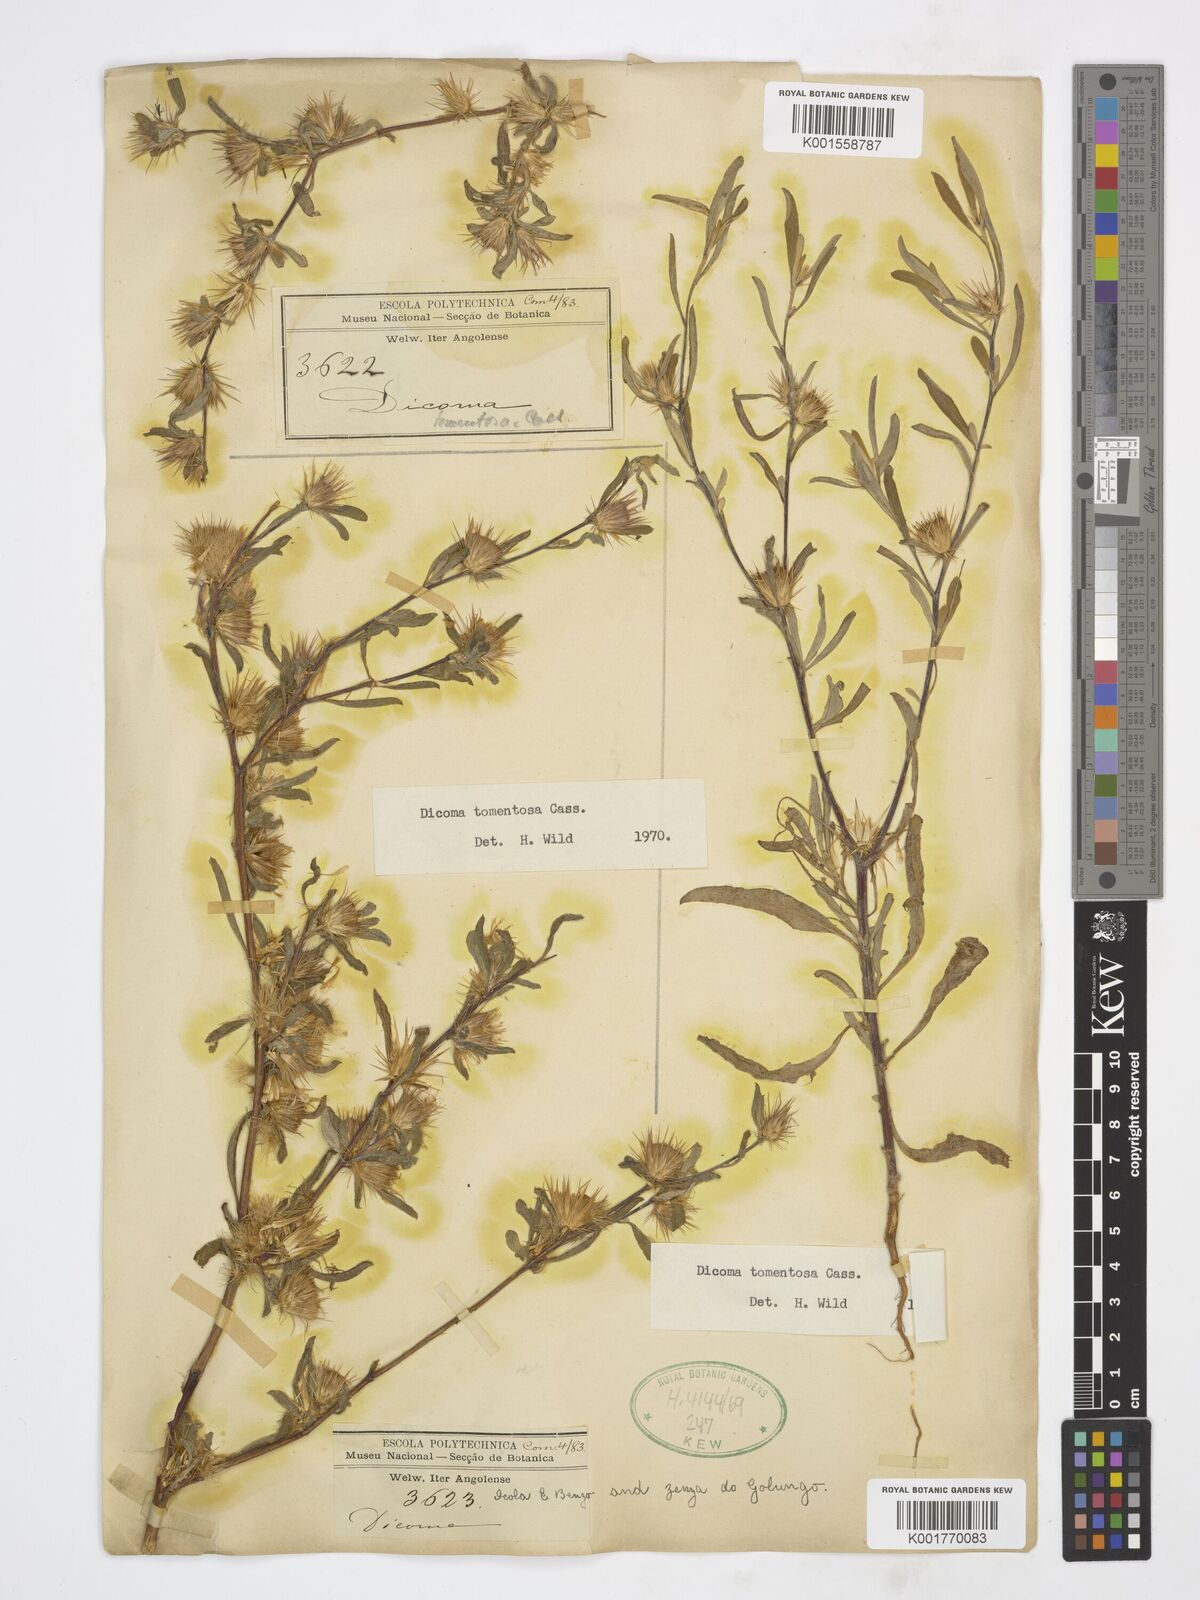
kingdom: Plantae
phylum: Tracheophyta
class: Magnoliopsida
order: Asterales
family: Asteraceae
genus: Dicoma
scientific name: Dicoma tomentosa
